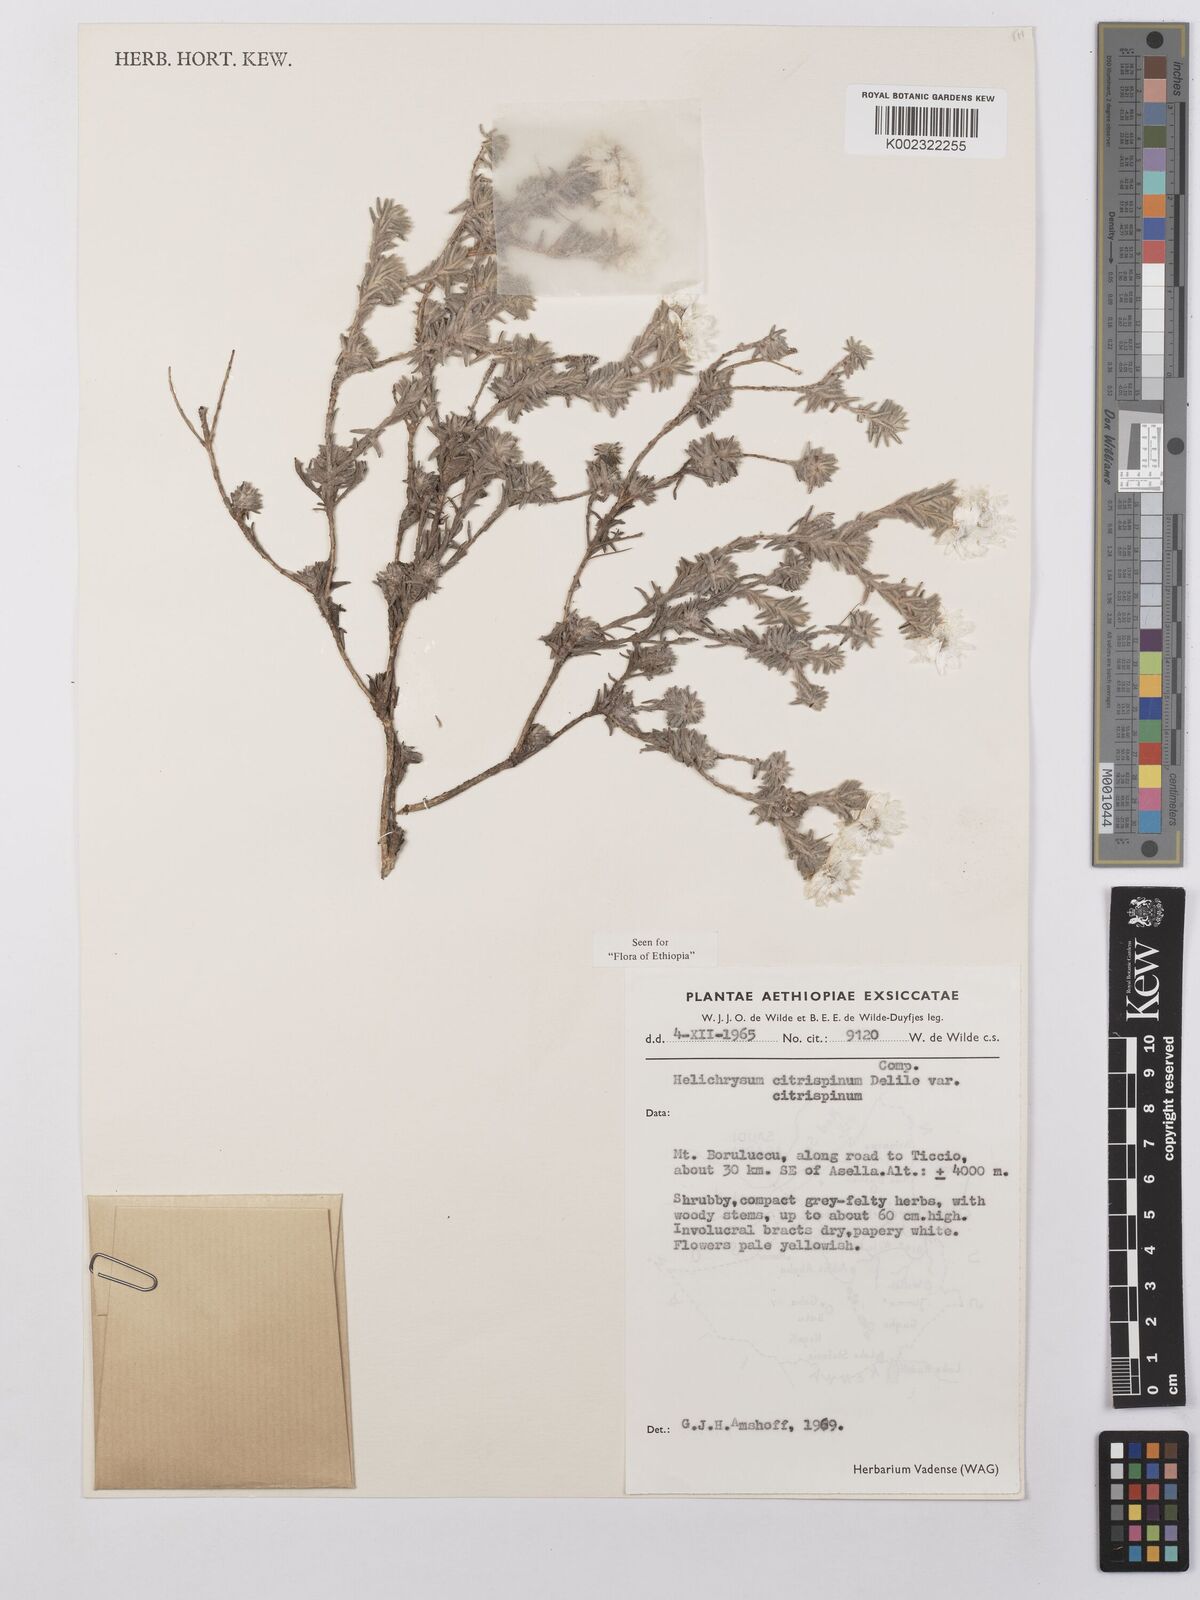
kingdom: Plantae
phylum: Tracheophyta
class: Magnoliopsida
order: Asterales
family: Asteraceae
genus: Helichrysum
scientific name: Helichrysum citrispinum
